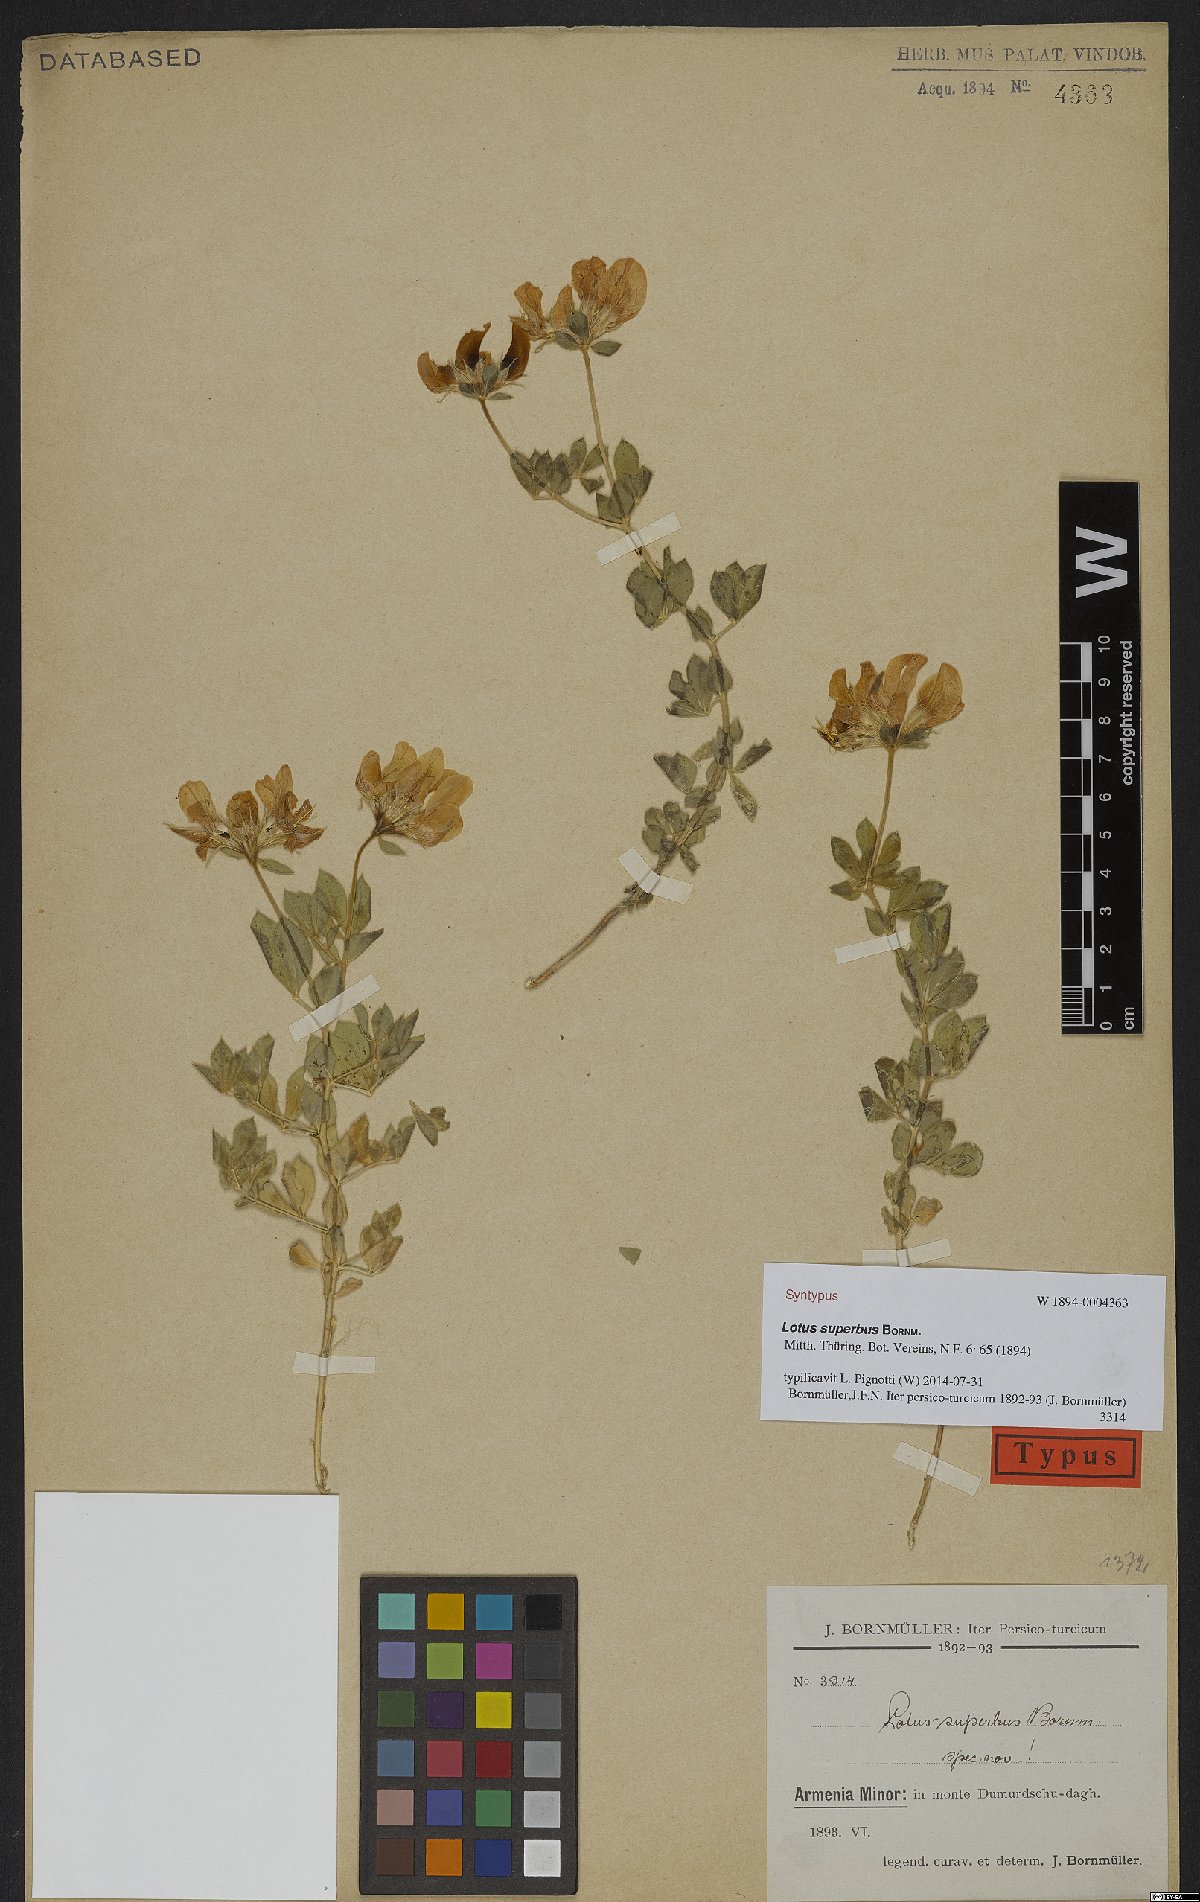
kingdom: Plantae
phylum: Tracheophyta
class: Magnoliopsida
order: Fabales
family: Fabaceae
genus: Lotus
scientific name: Lotus aegaeus
